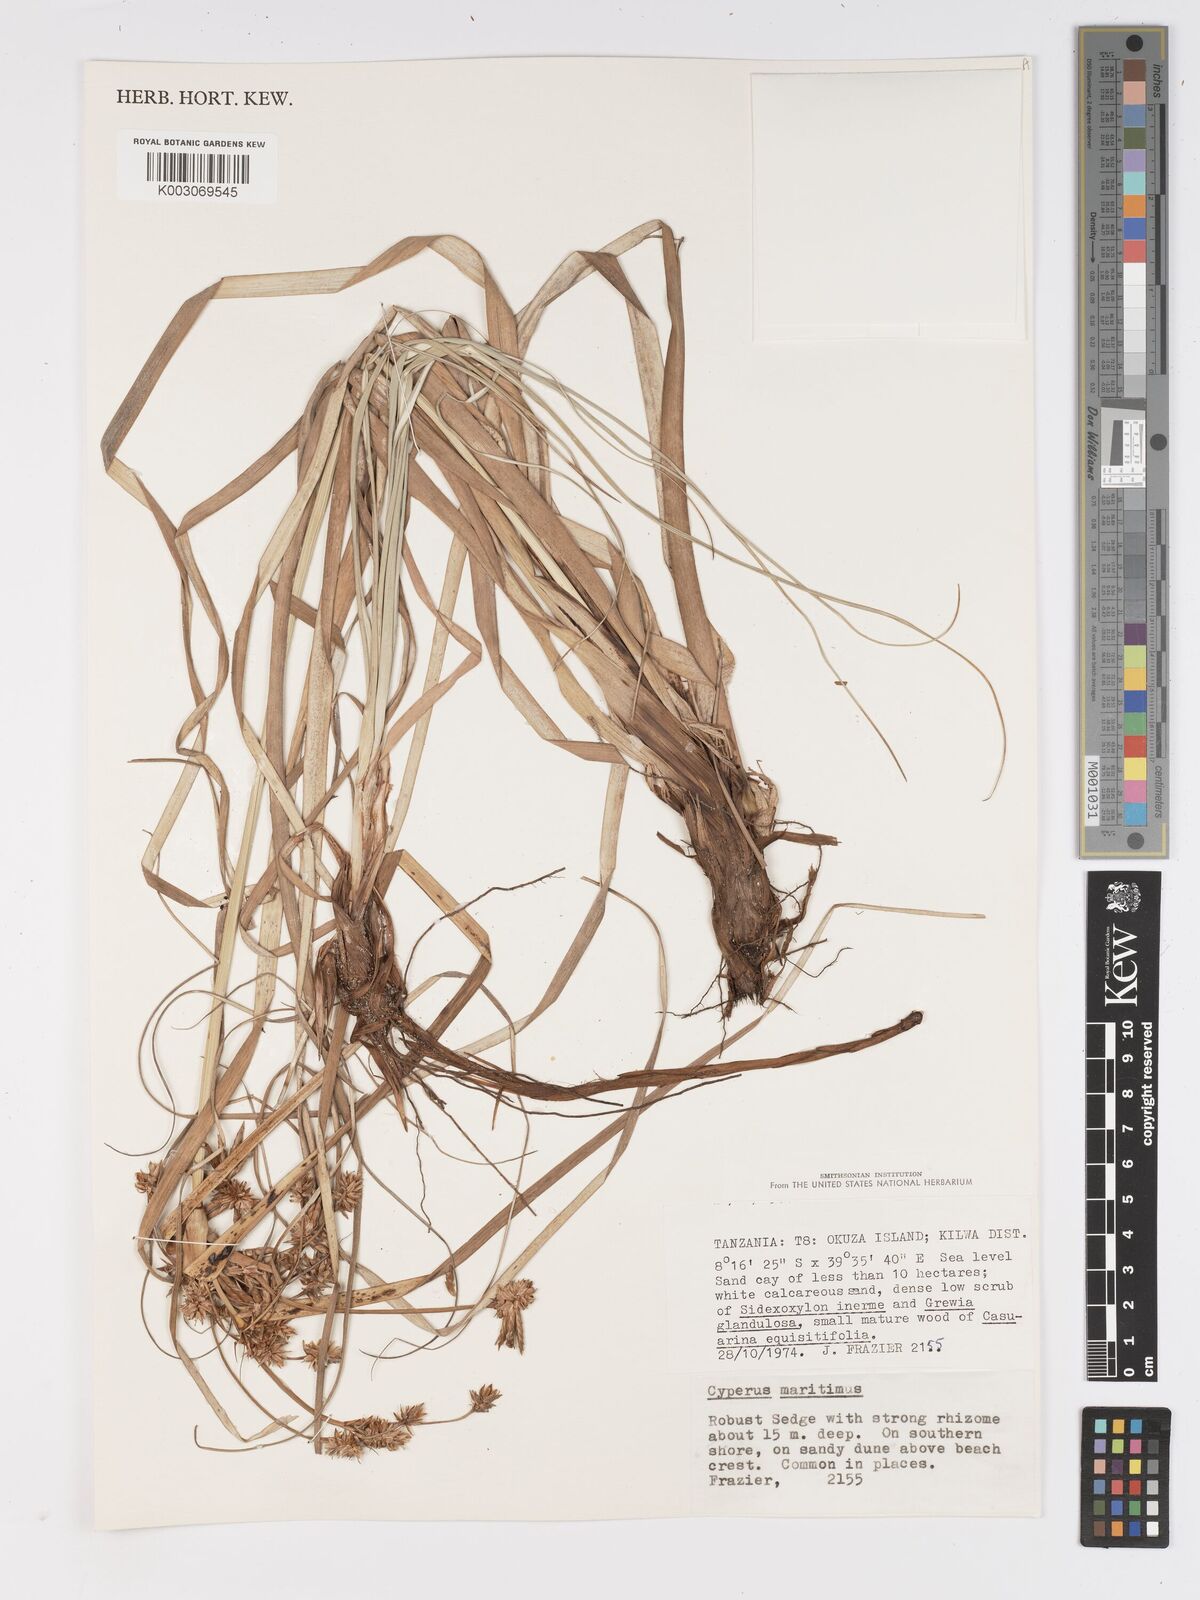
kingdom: Plantae
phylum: Tracheophyta
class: Liliopsida
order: Poales
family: Cyperaceae
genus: Cyperus
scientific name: Cyperus crassipes
